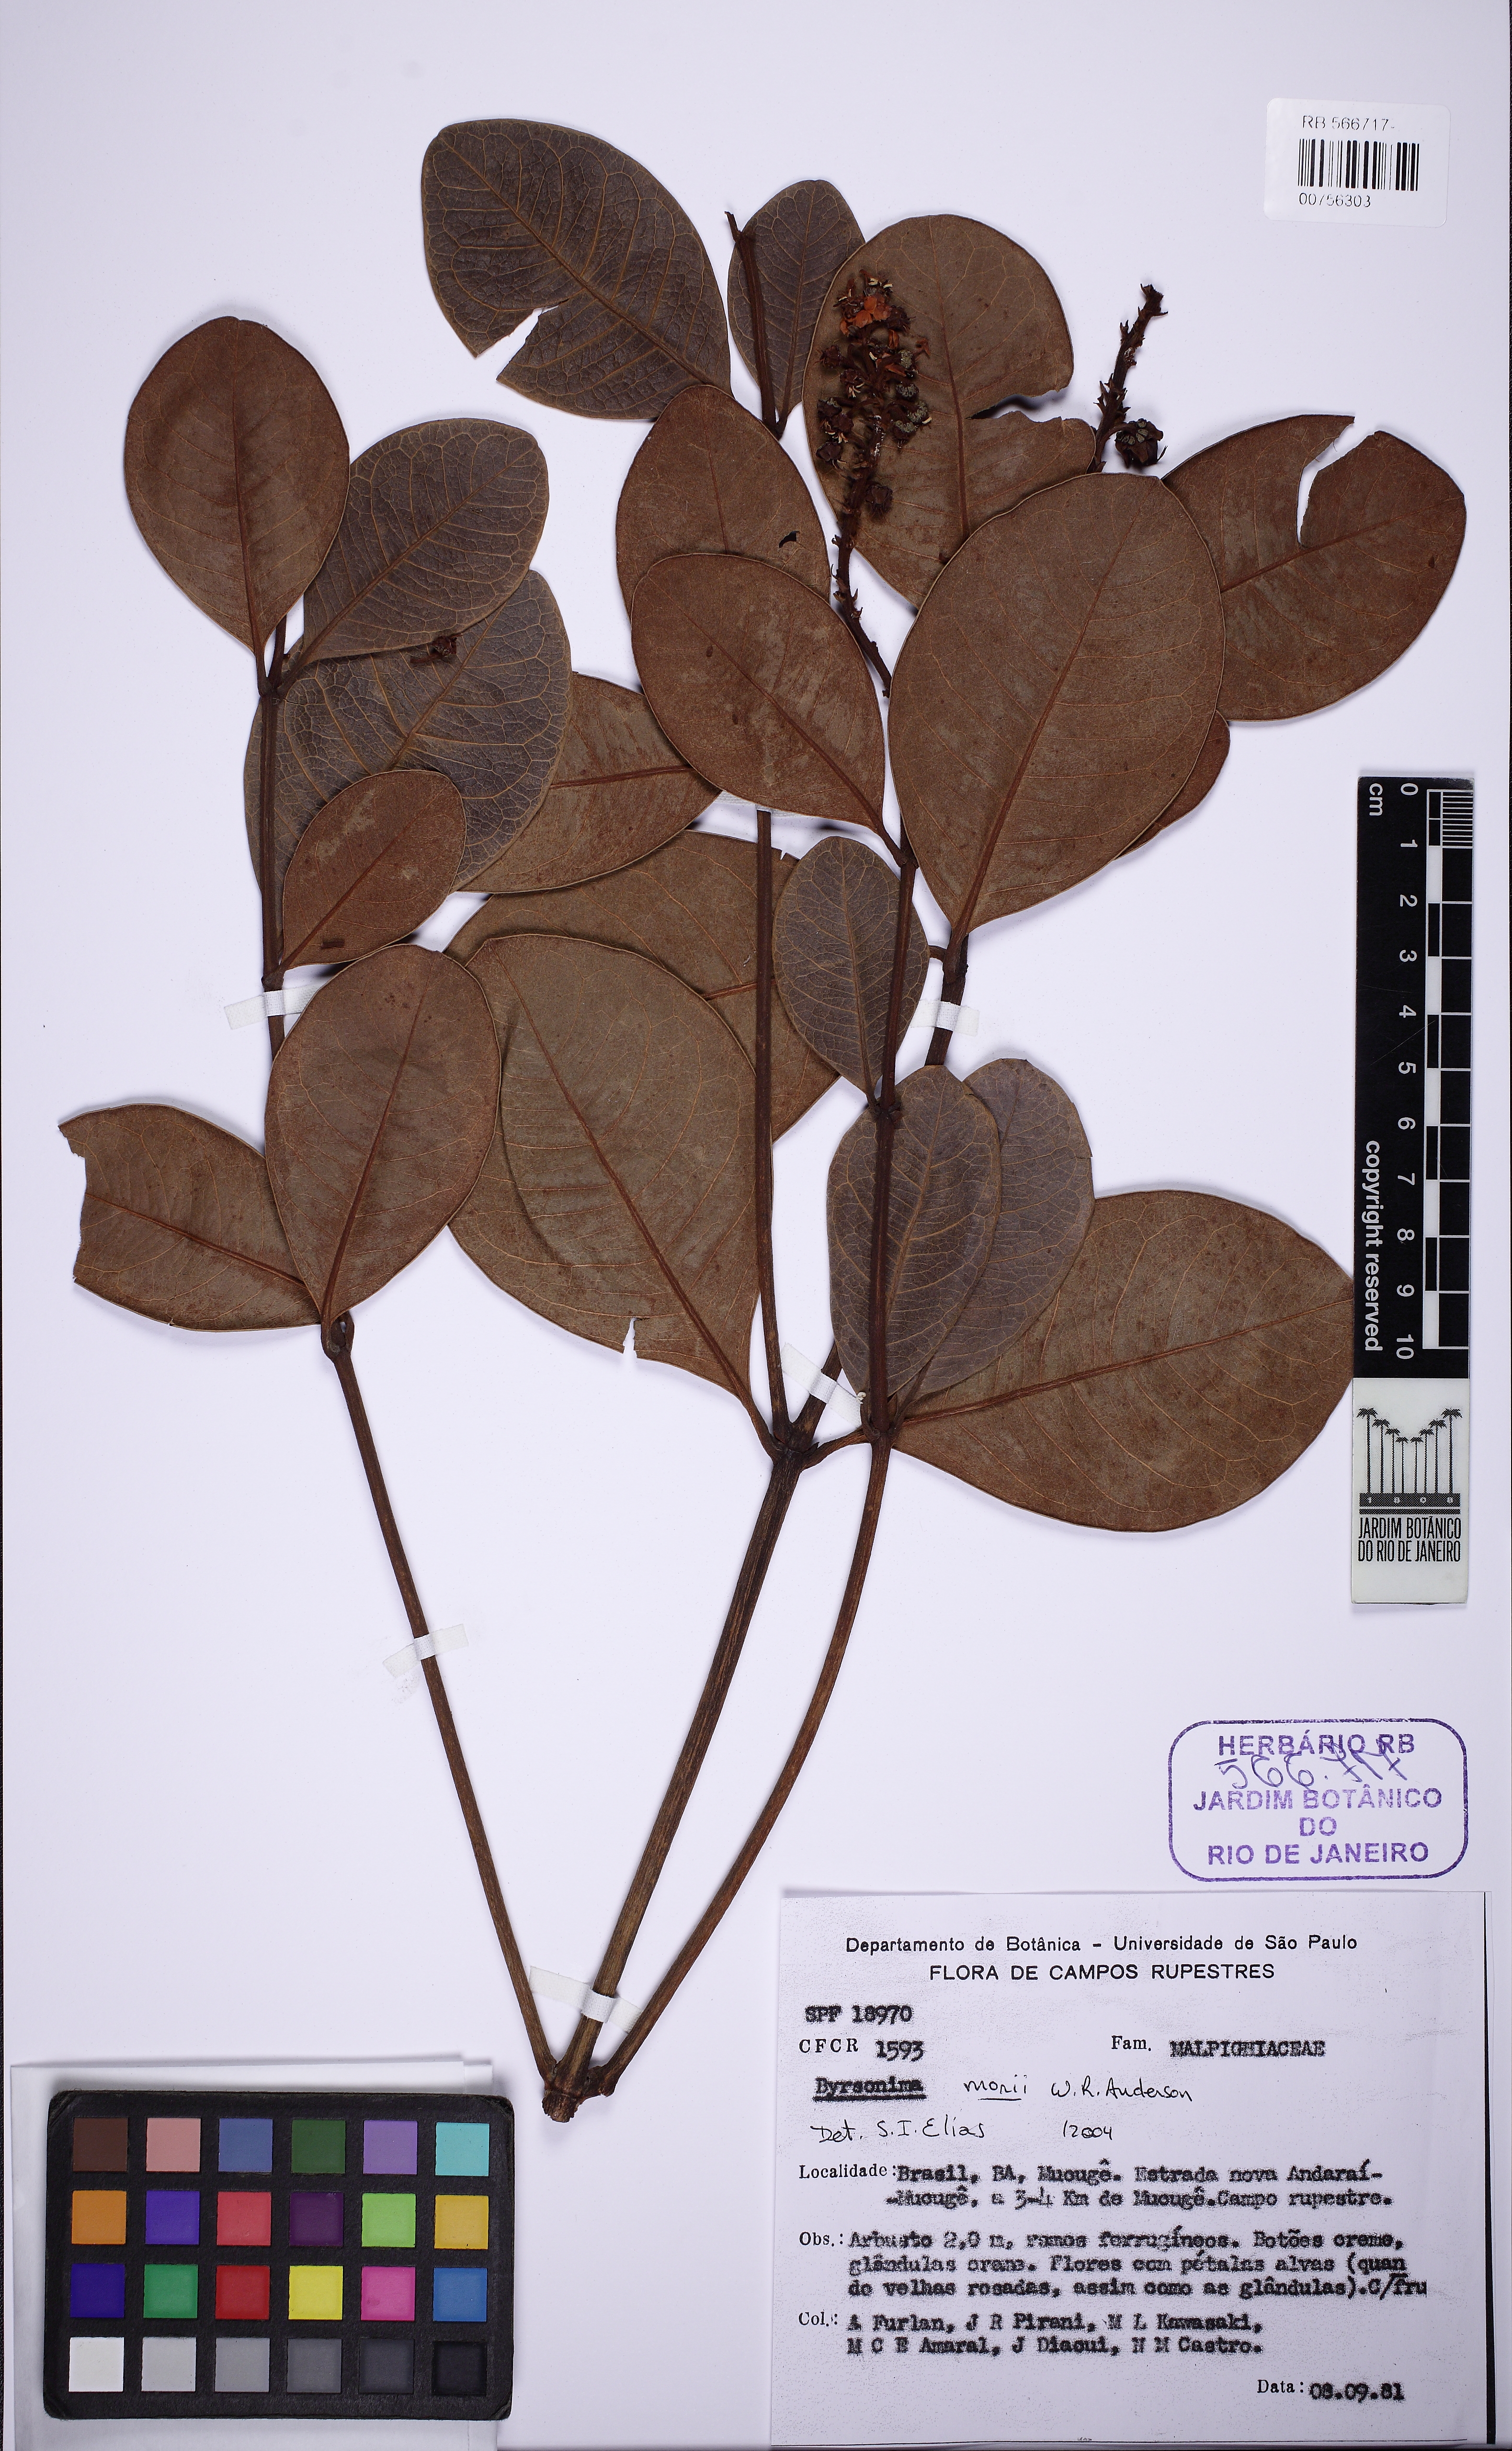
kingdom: Plantae
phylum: Tracheophyta
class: Magnoliopsida
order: Malpighiales
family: Malpighiaceae
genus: Byrsonima
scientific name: Byrsonima morii
